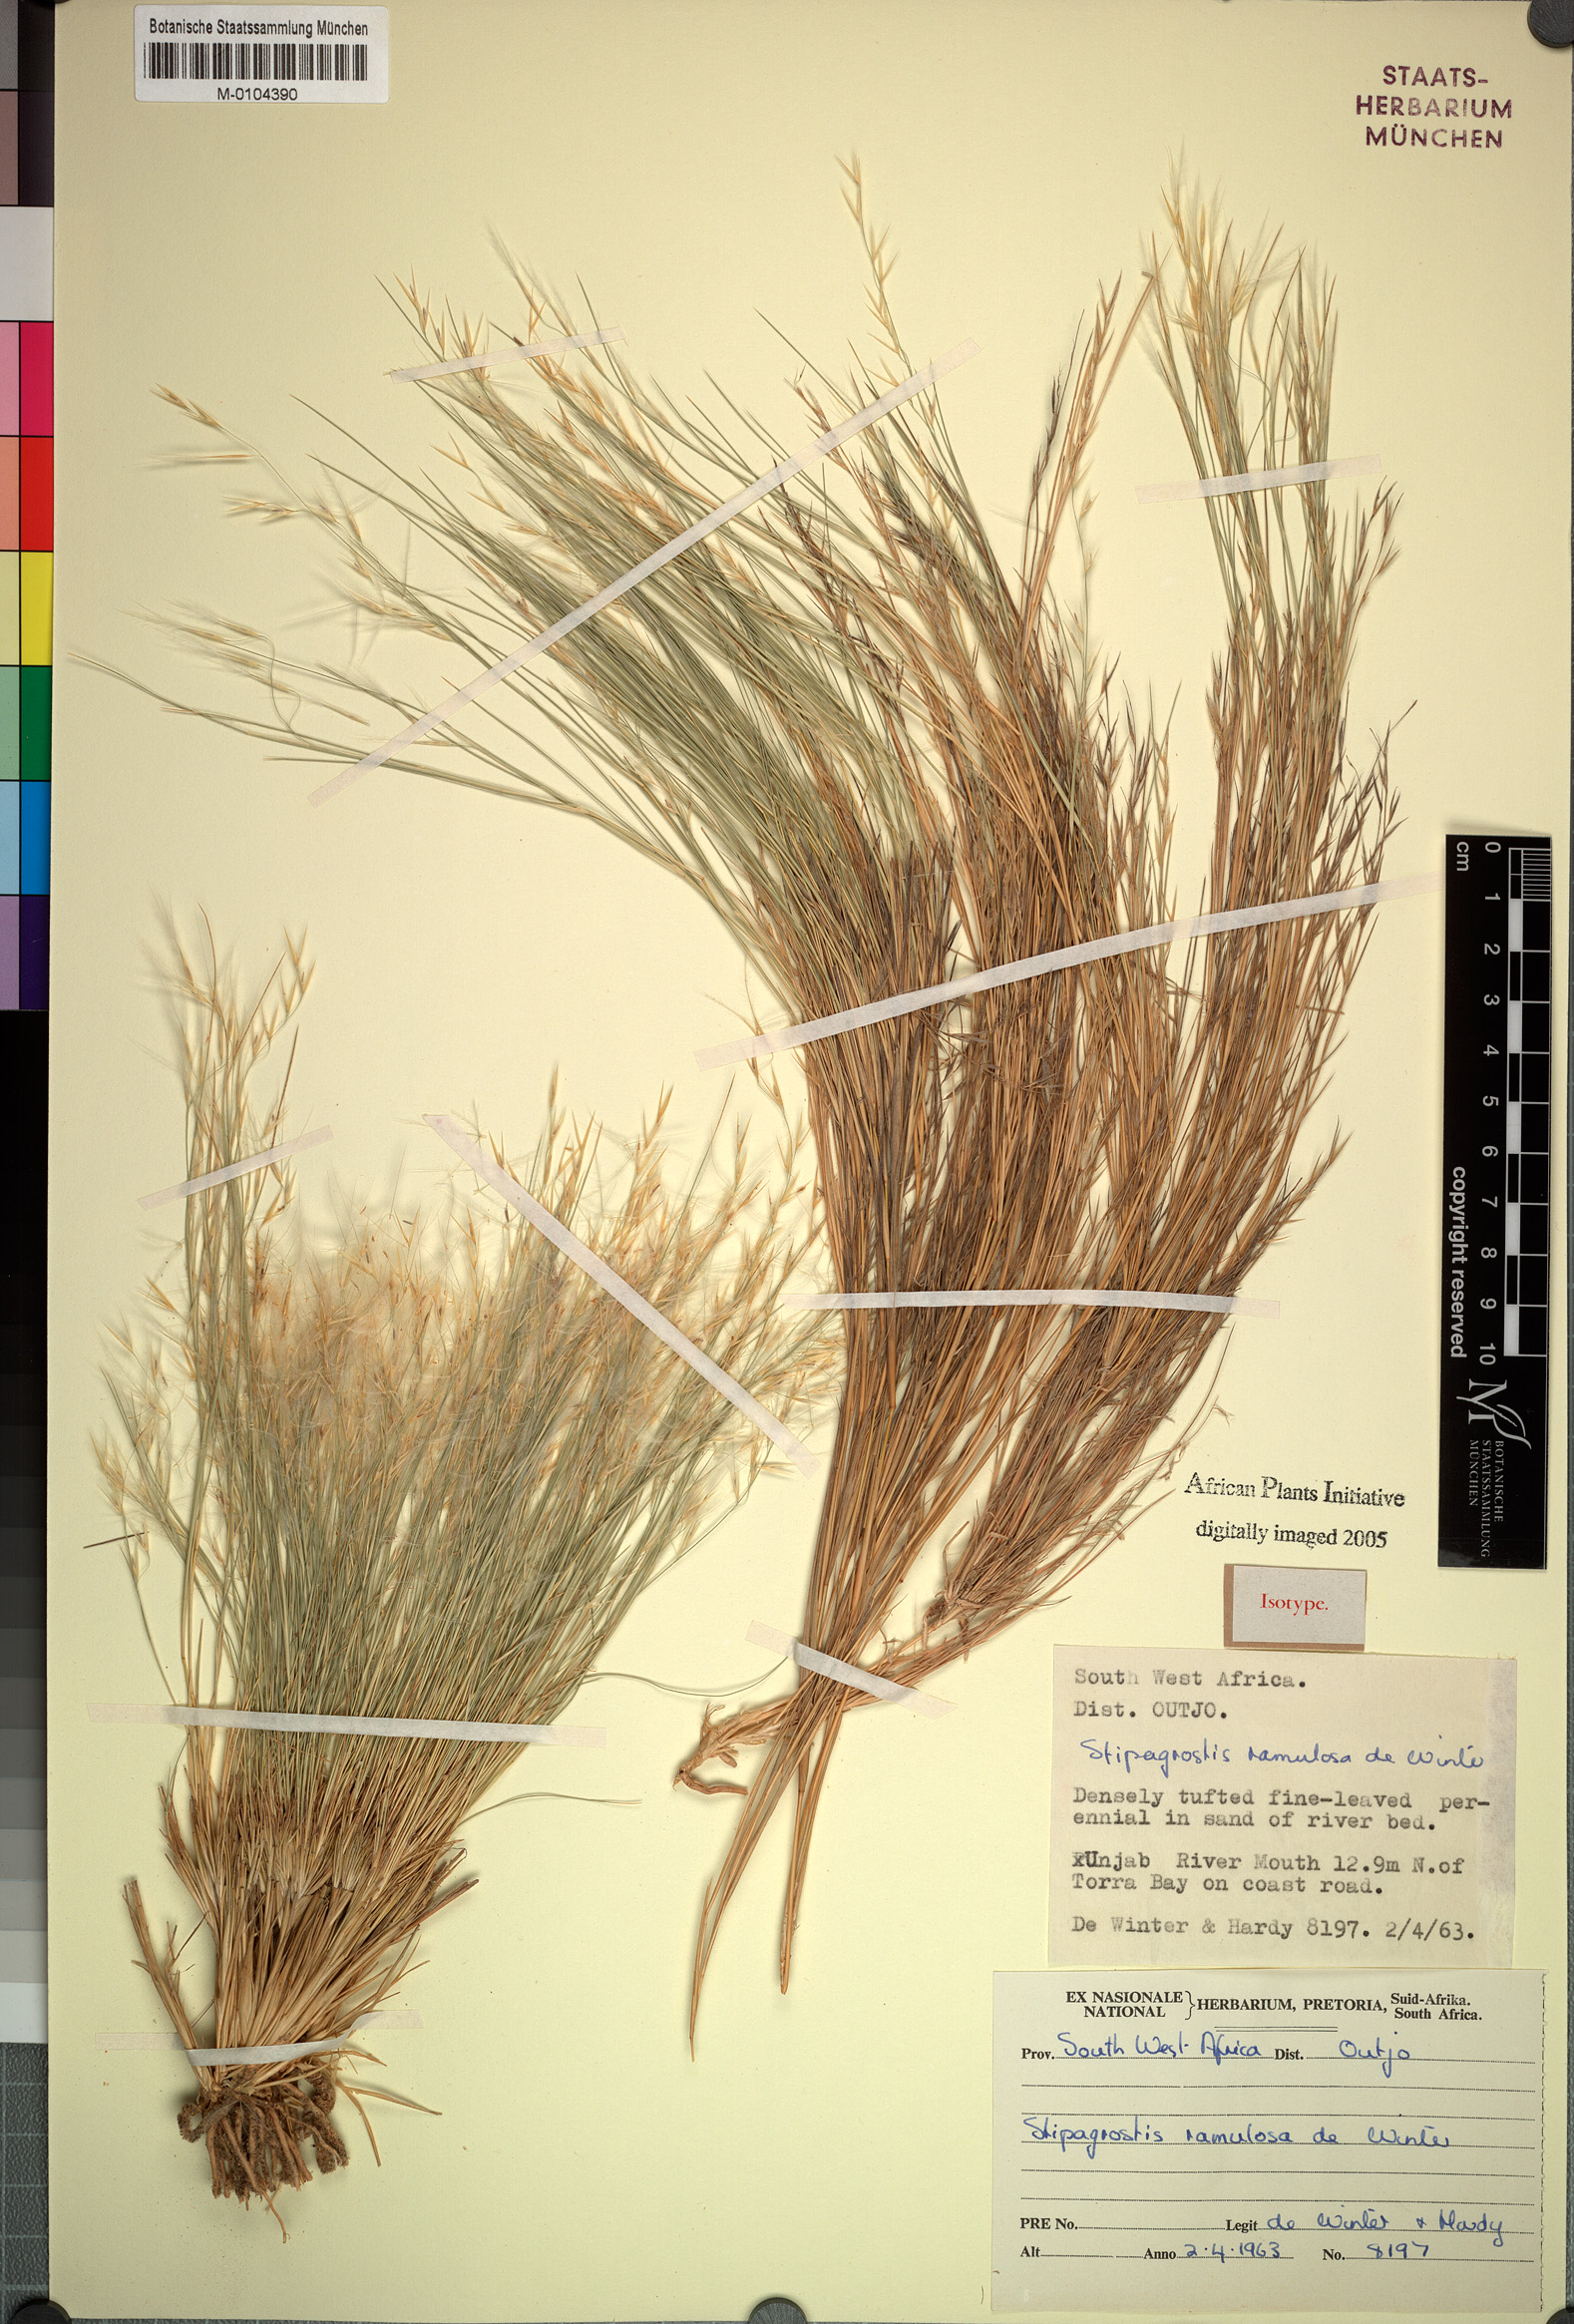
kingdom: Plantae
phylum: Tracheophyta
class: Liliopsida
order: Poales
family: Poaceae
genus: Stipagrostis
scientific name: Stipagrostis ramulosa
